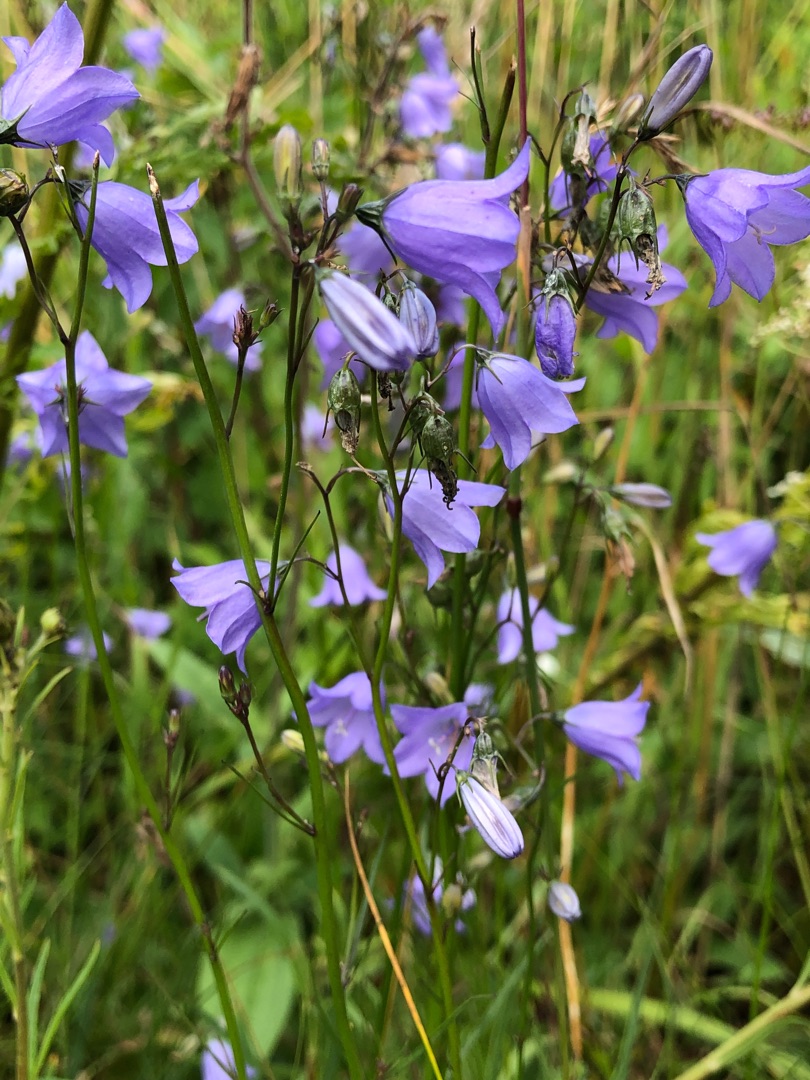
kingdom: Plantae
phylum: Tracheophyta
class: Magnoliopsida
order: Asterales
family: Campanulaceae
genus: Campanula
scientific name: Campanula rotundifolia
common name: Liden klokke
